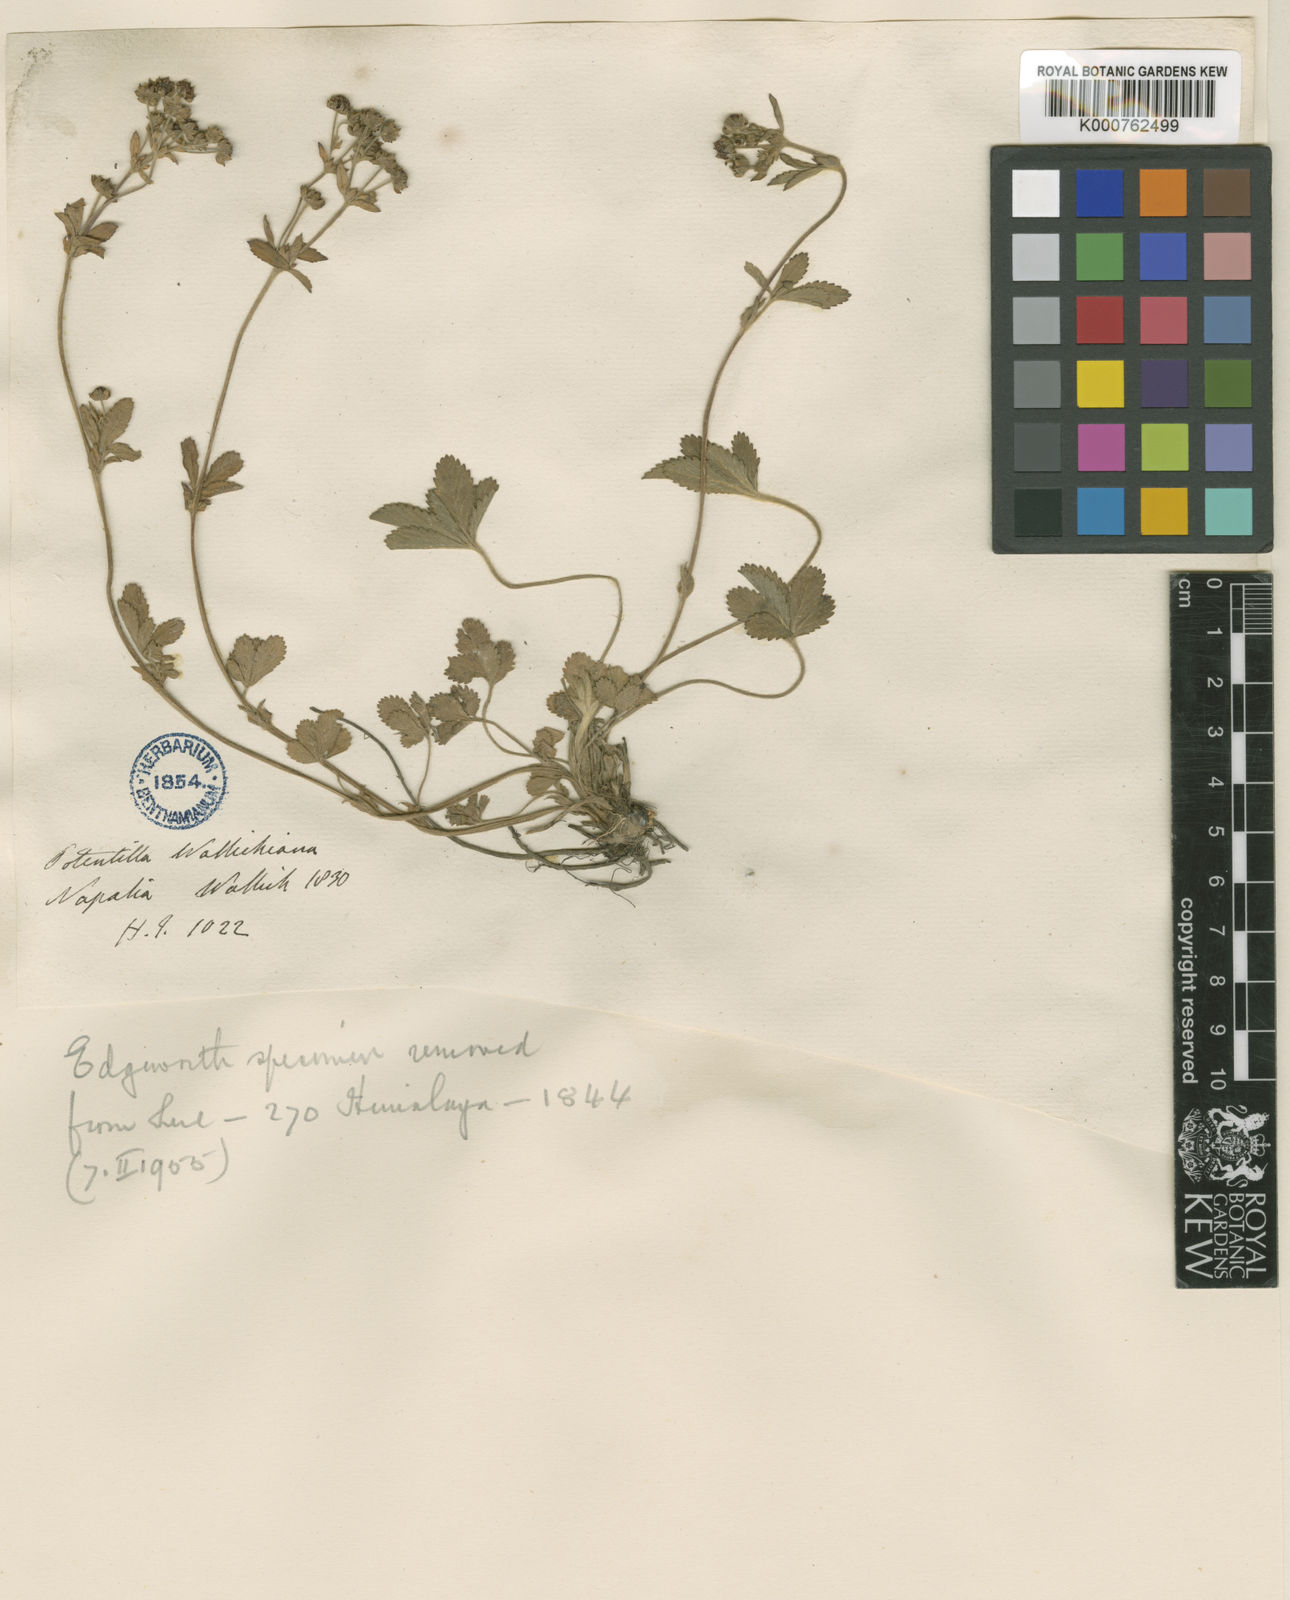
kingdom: Plantae
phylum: Tracheophyta
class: Magnoliopsida
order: Rosales
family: Rosaceae
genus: Potentilla
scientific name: Potentilla
